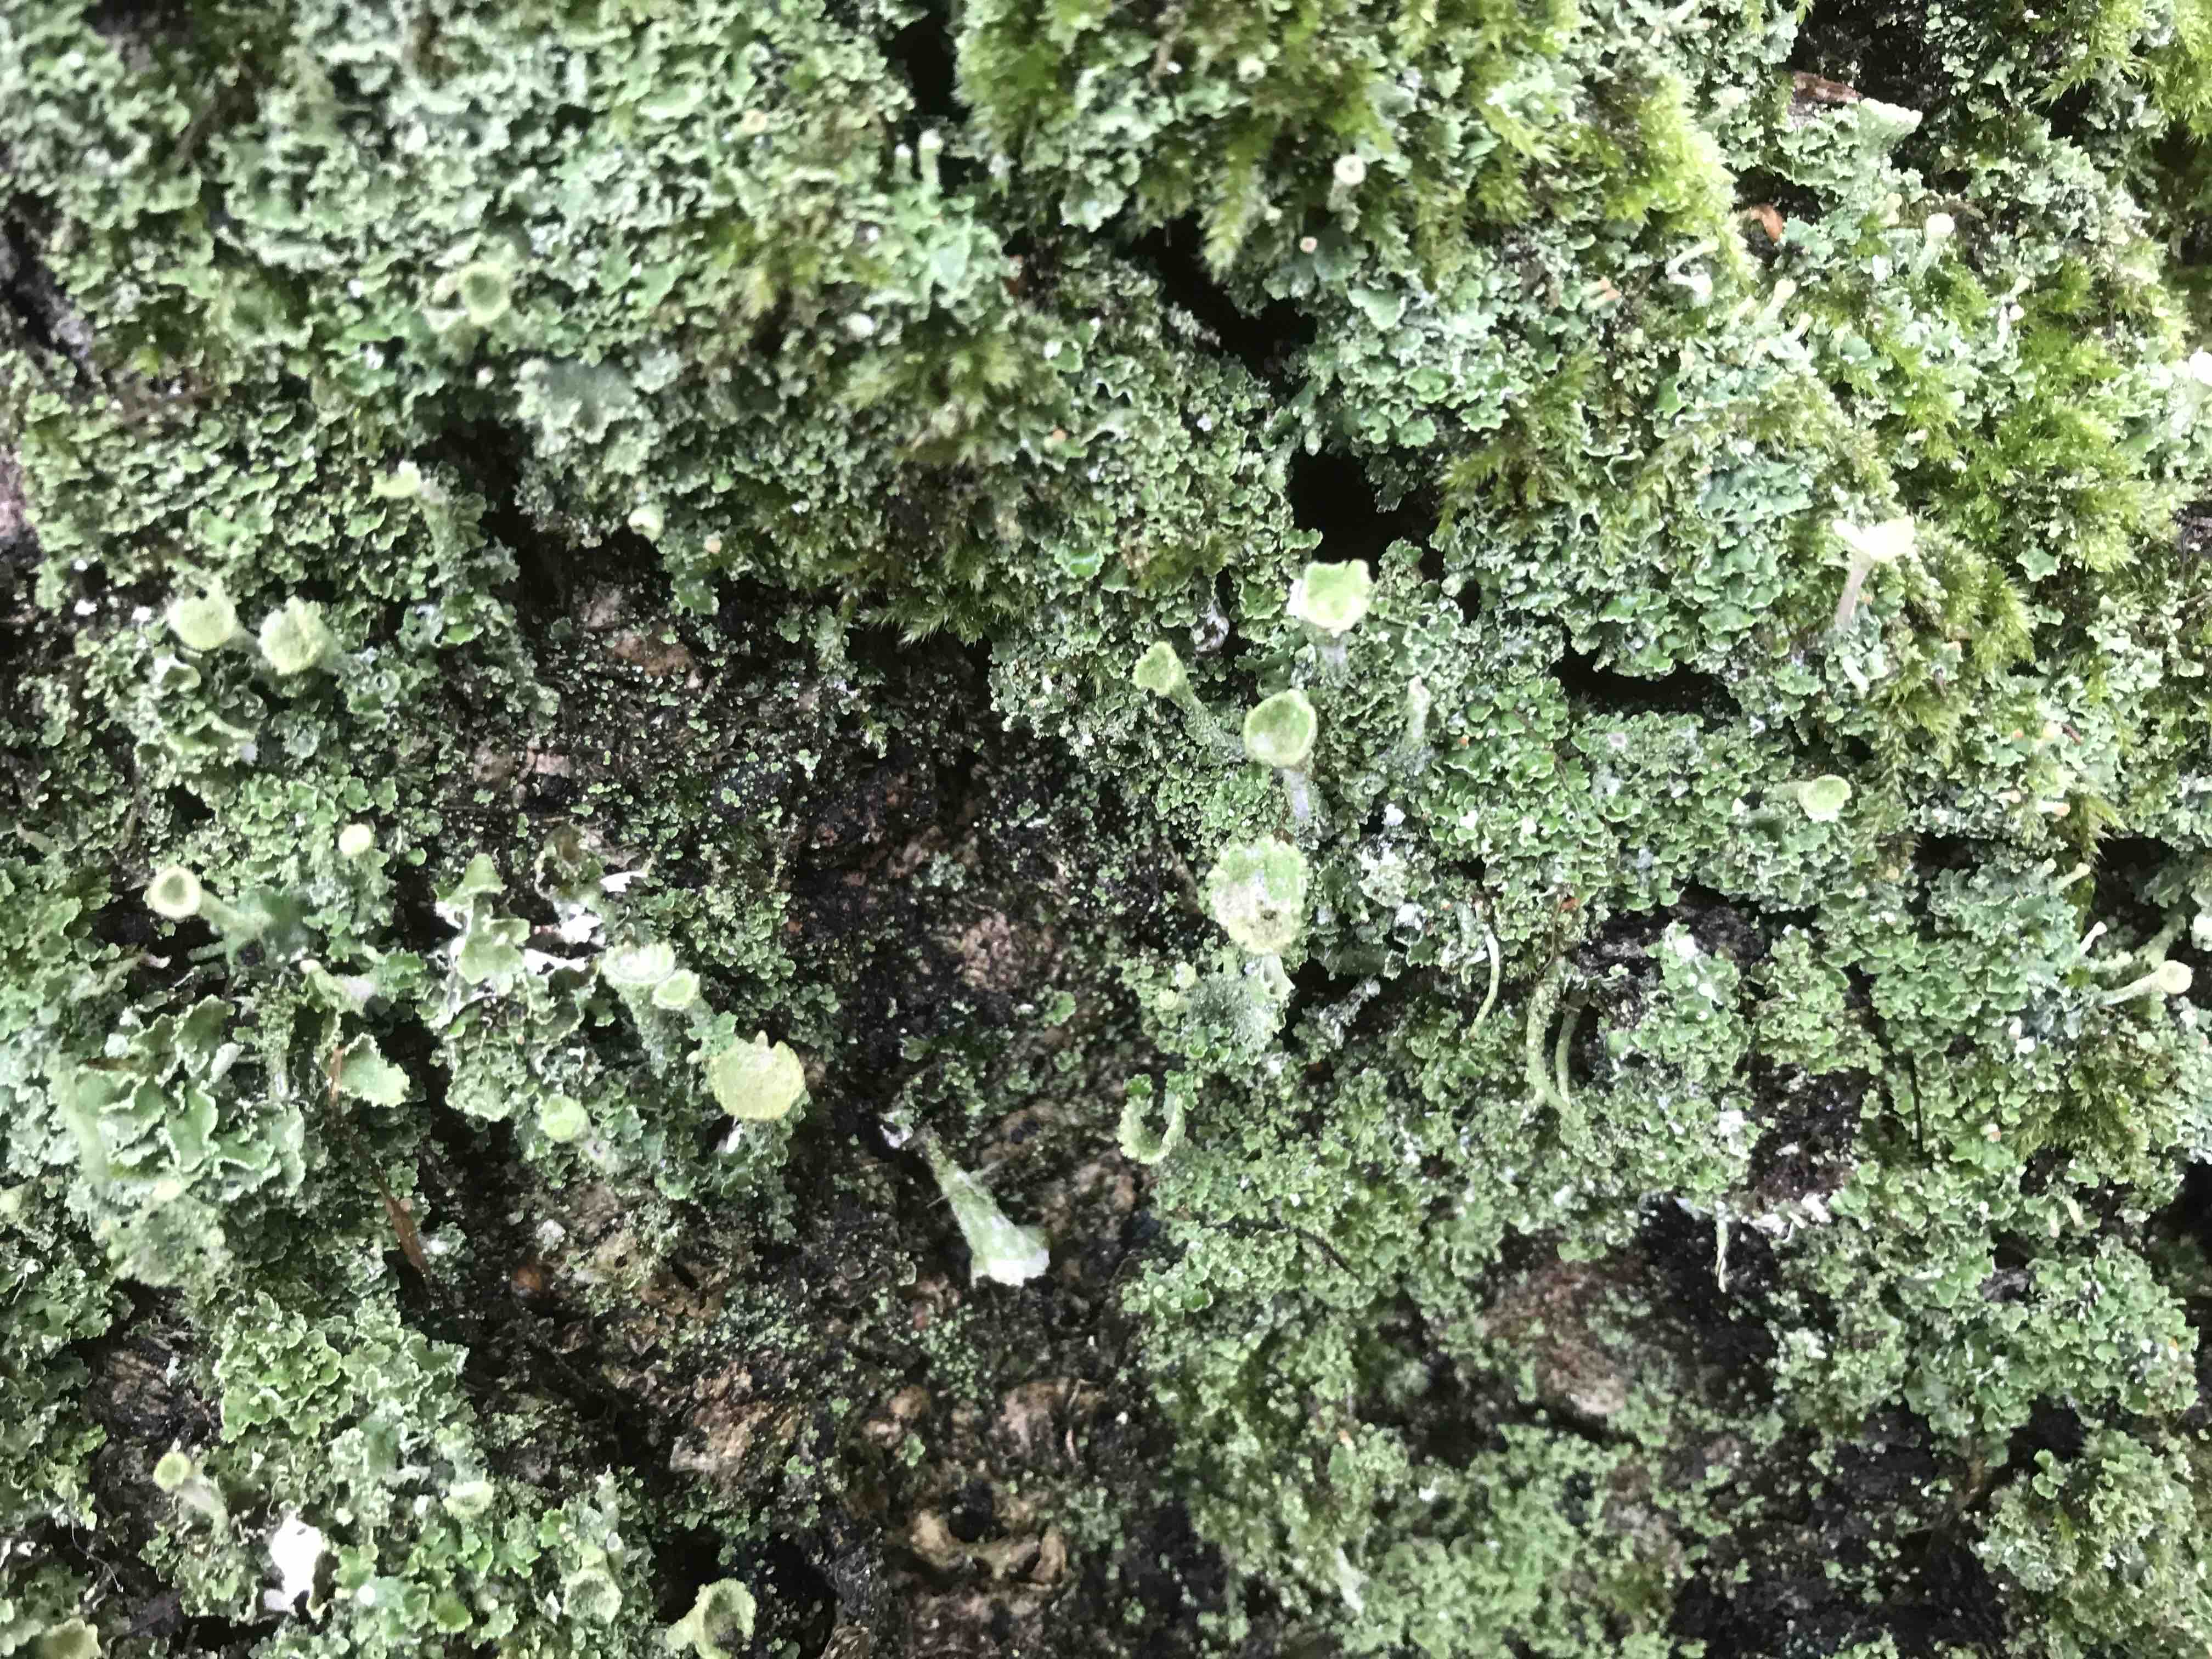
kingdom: Fungi
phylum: Ascomycota
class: Lecanoromycetes
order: Lecanorales
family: Cladoniaceae
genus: Cladonia
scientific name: Cladonia
